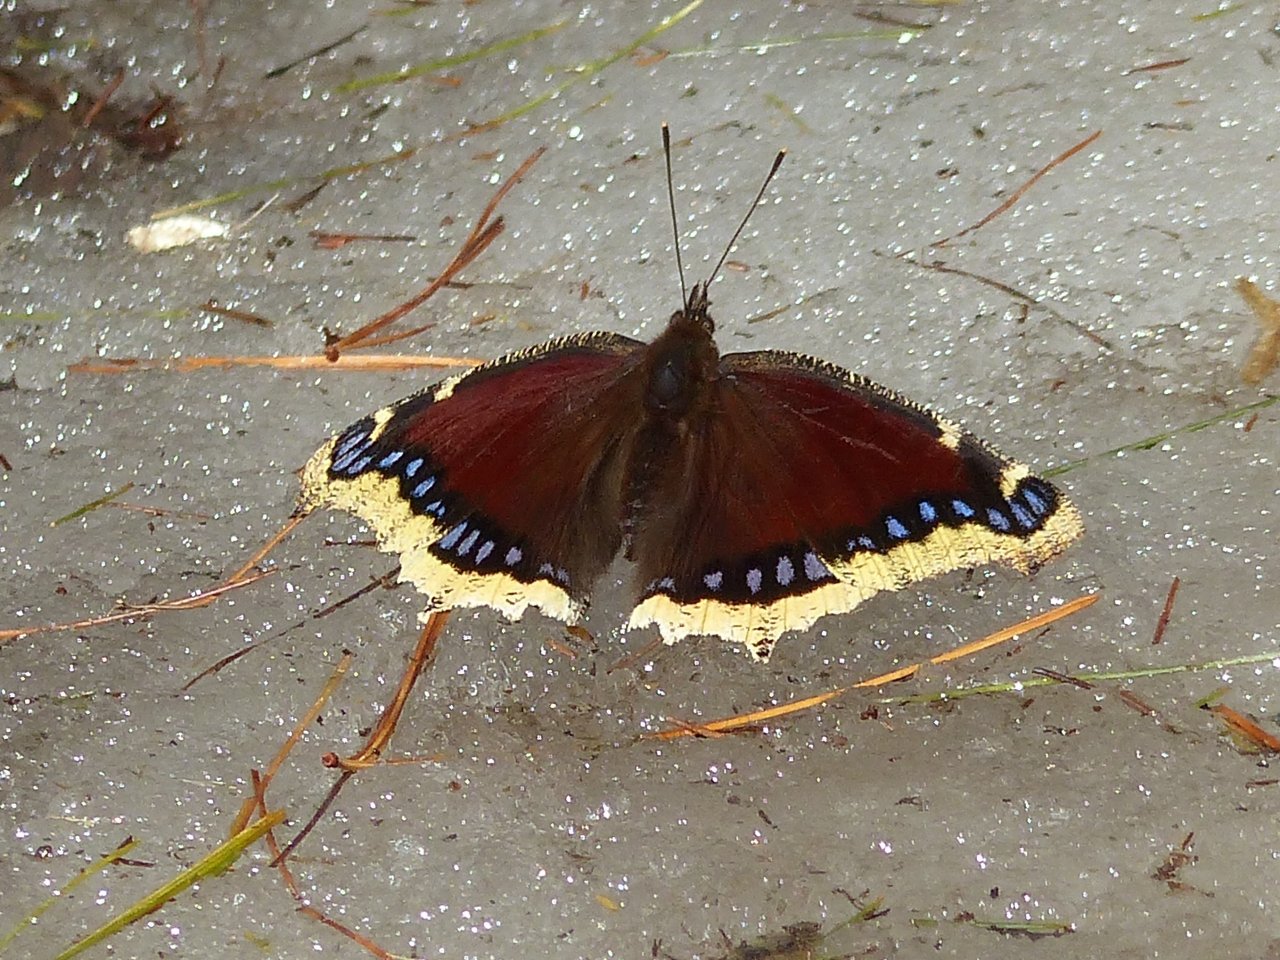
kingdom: Animalia
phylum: Arthropoda
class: Insecta
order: Lepidoptera
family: Nymphalidae
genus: Nymphalis
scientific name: Nymphalis antiopa
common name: Mourning Cloak
